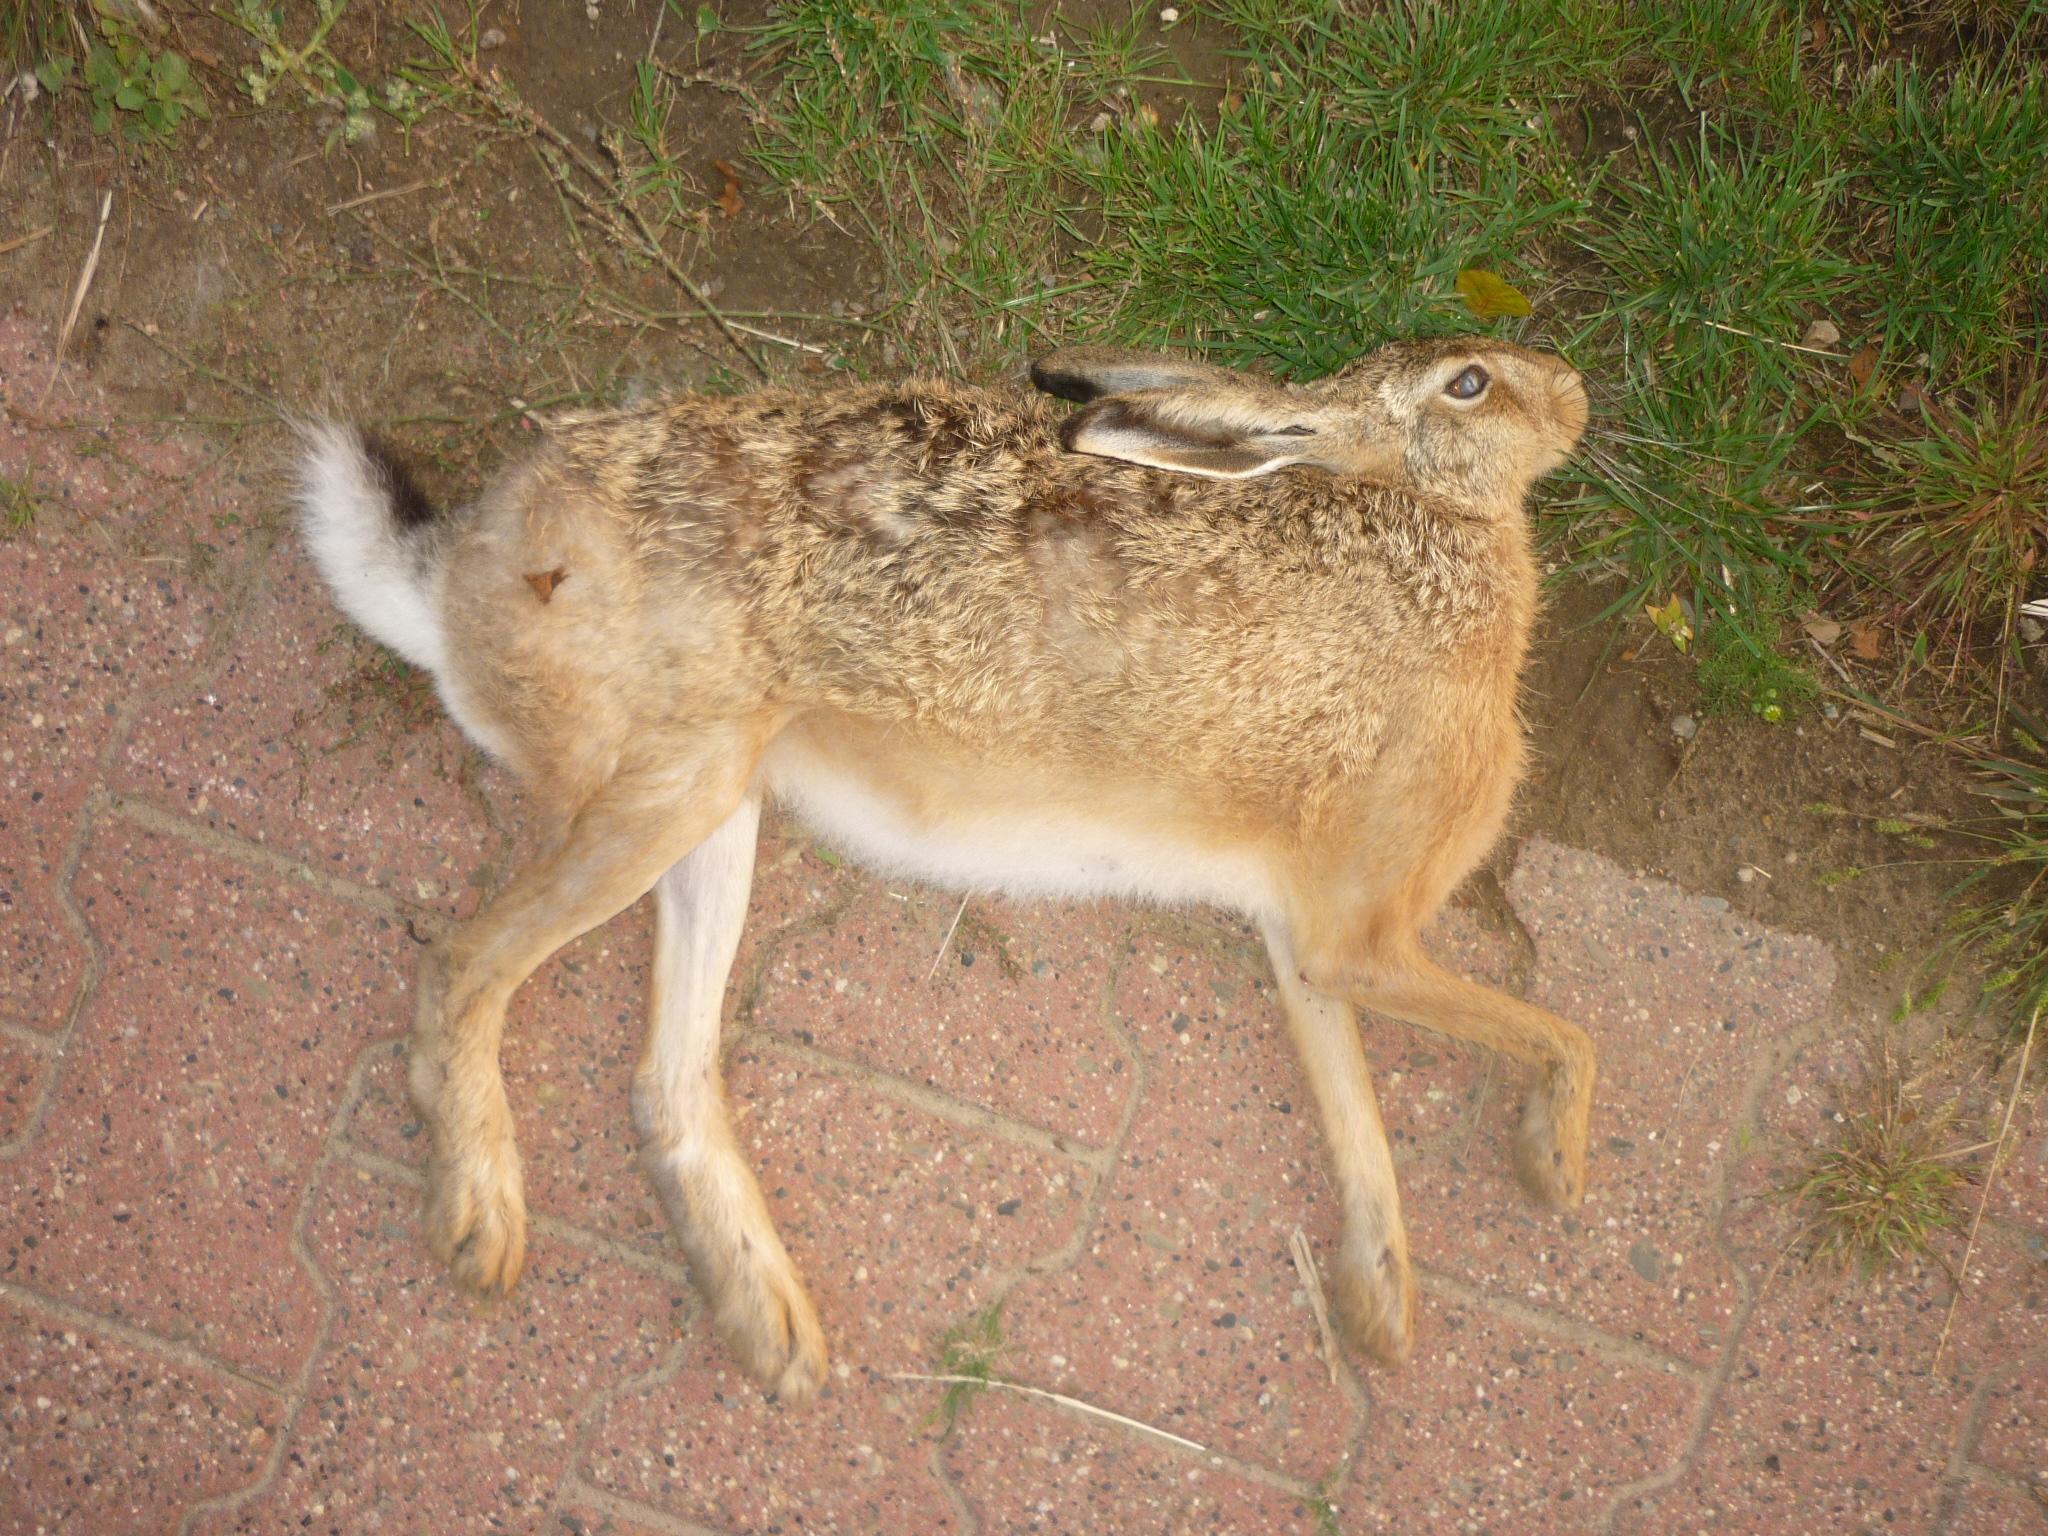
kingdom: Animalia
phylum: Chordata
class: Mammalia
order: Lagomorpha
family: Leporidae
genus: Lepus
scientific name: Lepus europaeus
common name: European hare
